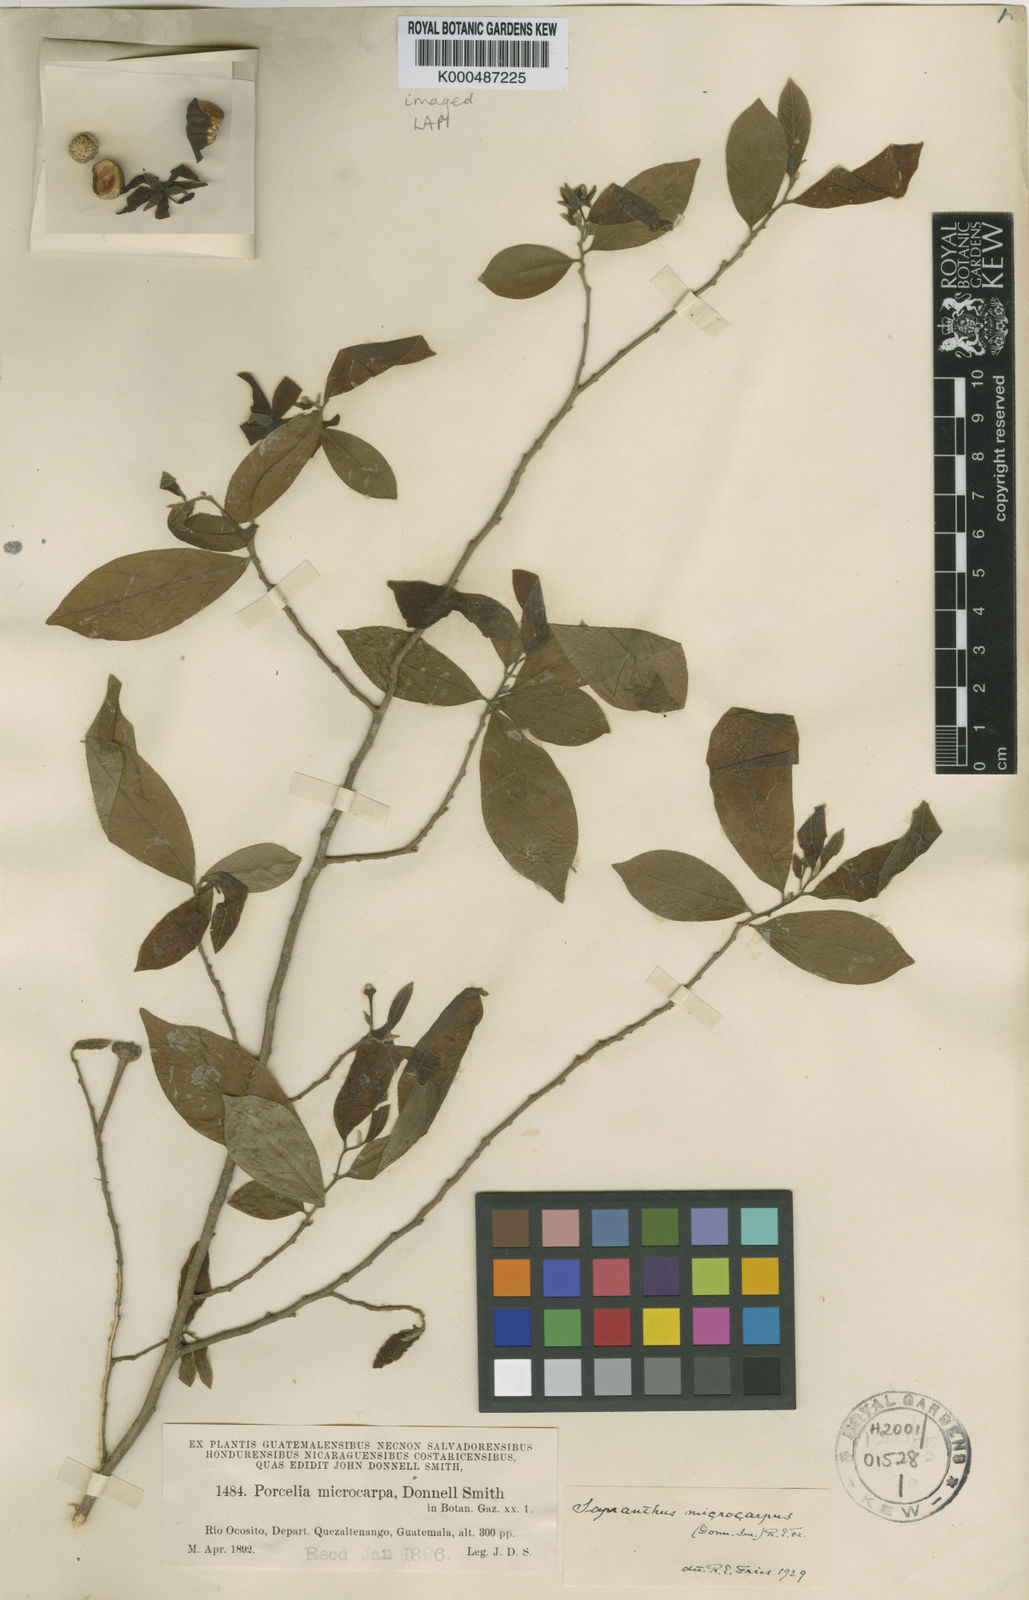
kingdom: Plantae
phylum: Tracheophyta
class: Magnoliopsida
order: Magnoliales
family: Annonaceae
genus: Sapranthus
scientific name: Sapranthus microcarpus
